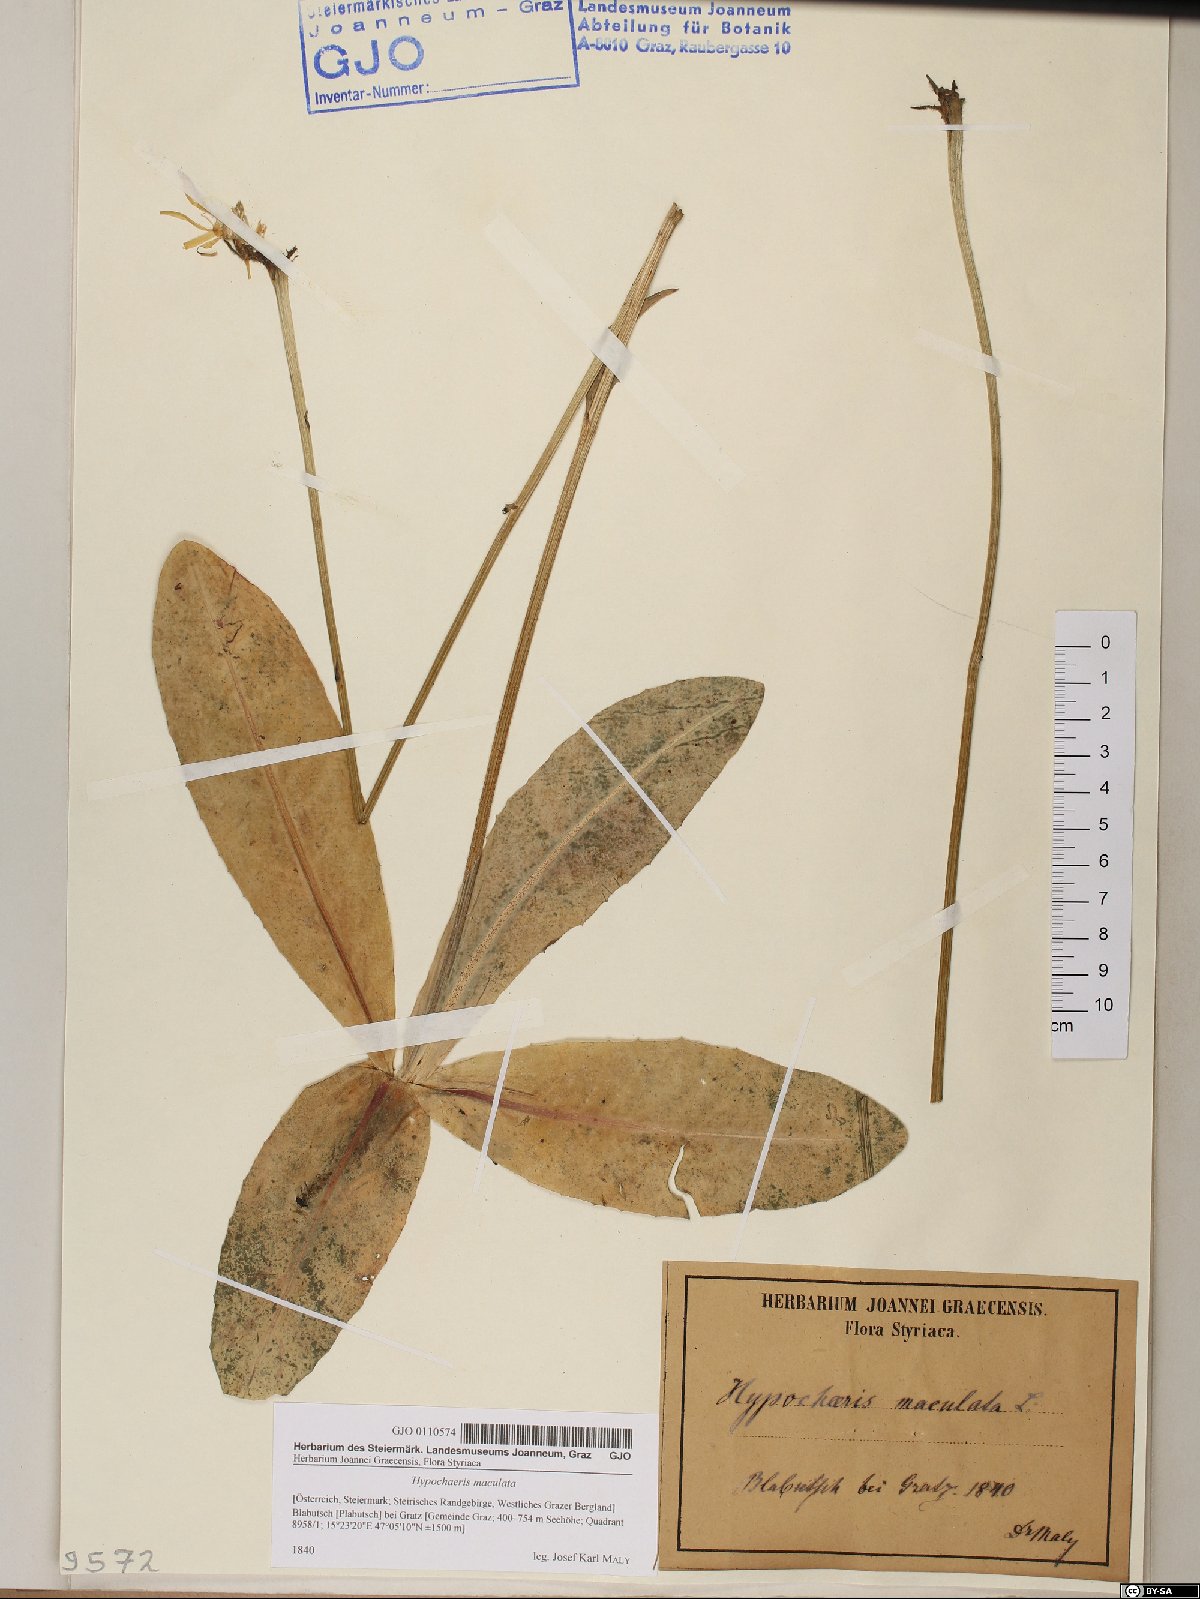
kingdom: Plantae
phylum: Tracheophyta
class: Magnoliopsida
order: Asterales
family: Asteraceae
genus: Trommsdorffia
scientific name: Trommsdorffia maculata
